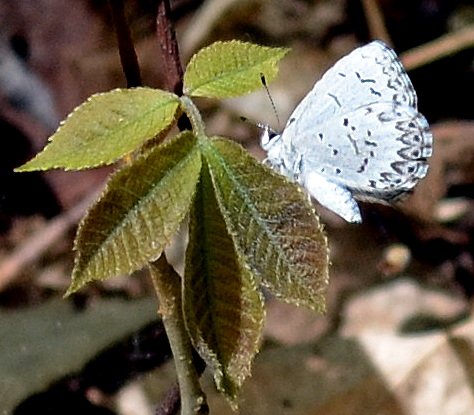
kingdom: Animalia
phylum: Arthropoda
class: Insecta
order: Lepidoptera
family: Lycaenidae
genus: Celastrina
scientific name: Celastrina lucia
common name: Northern Spring Azure
